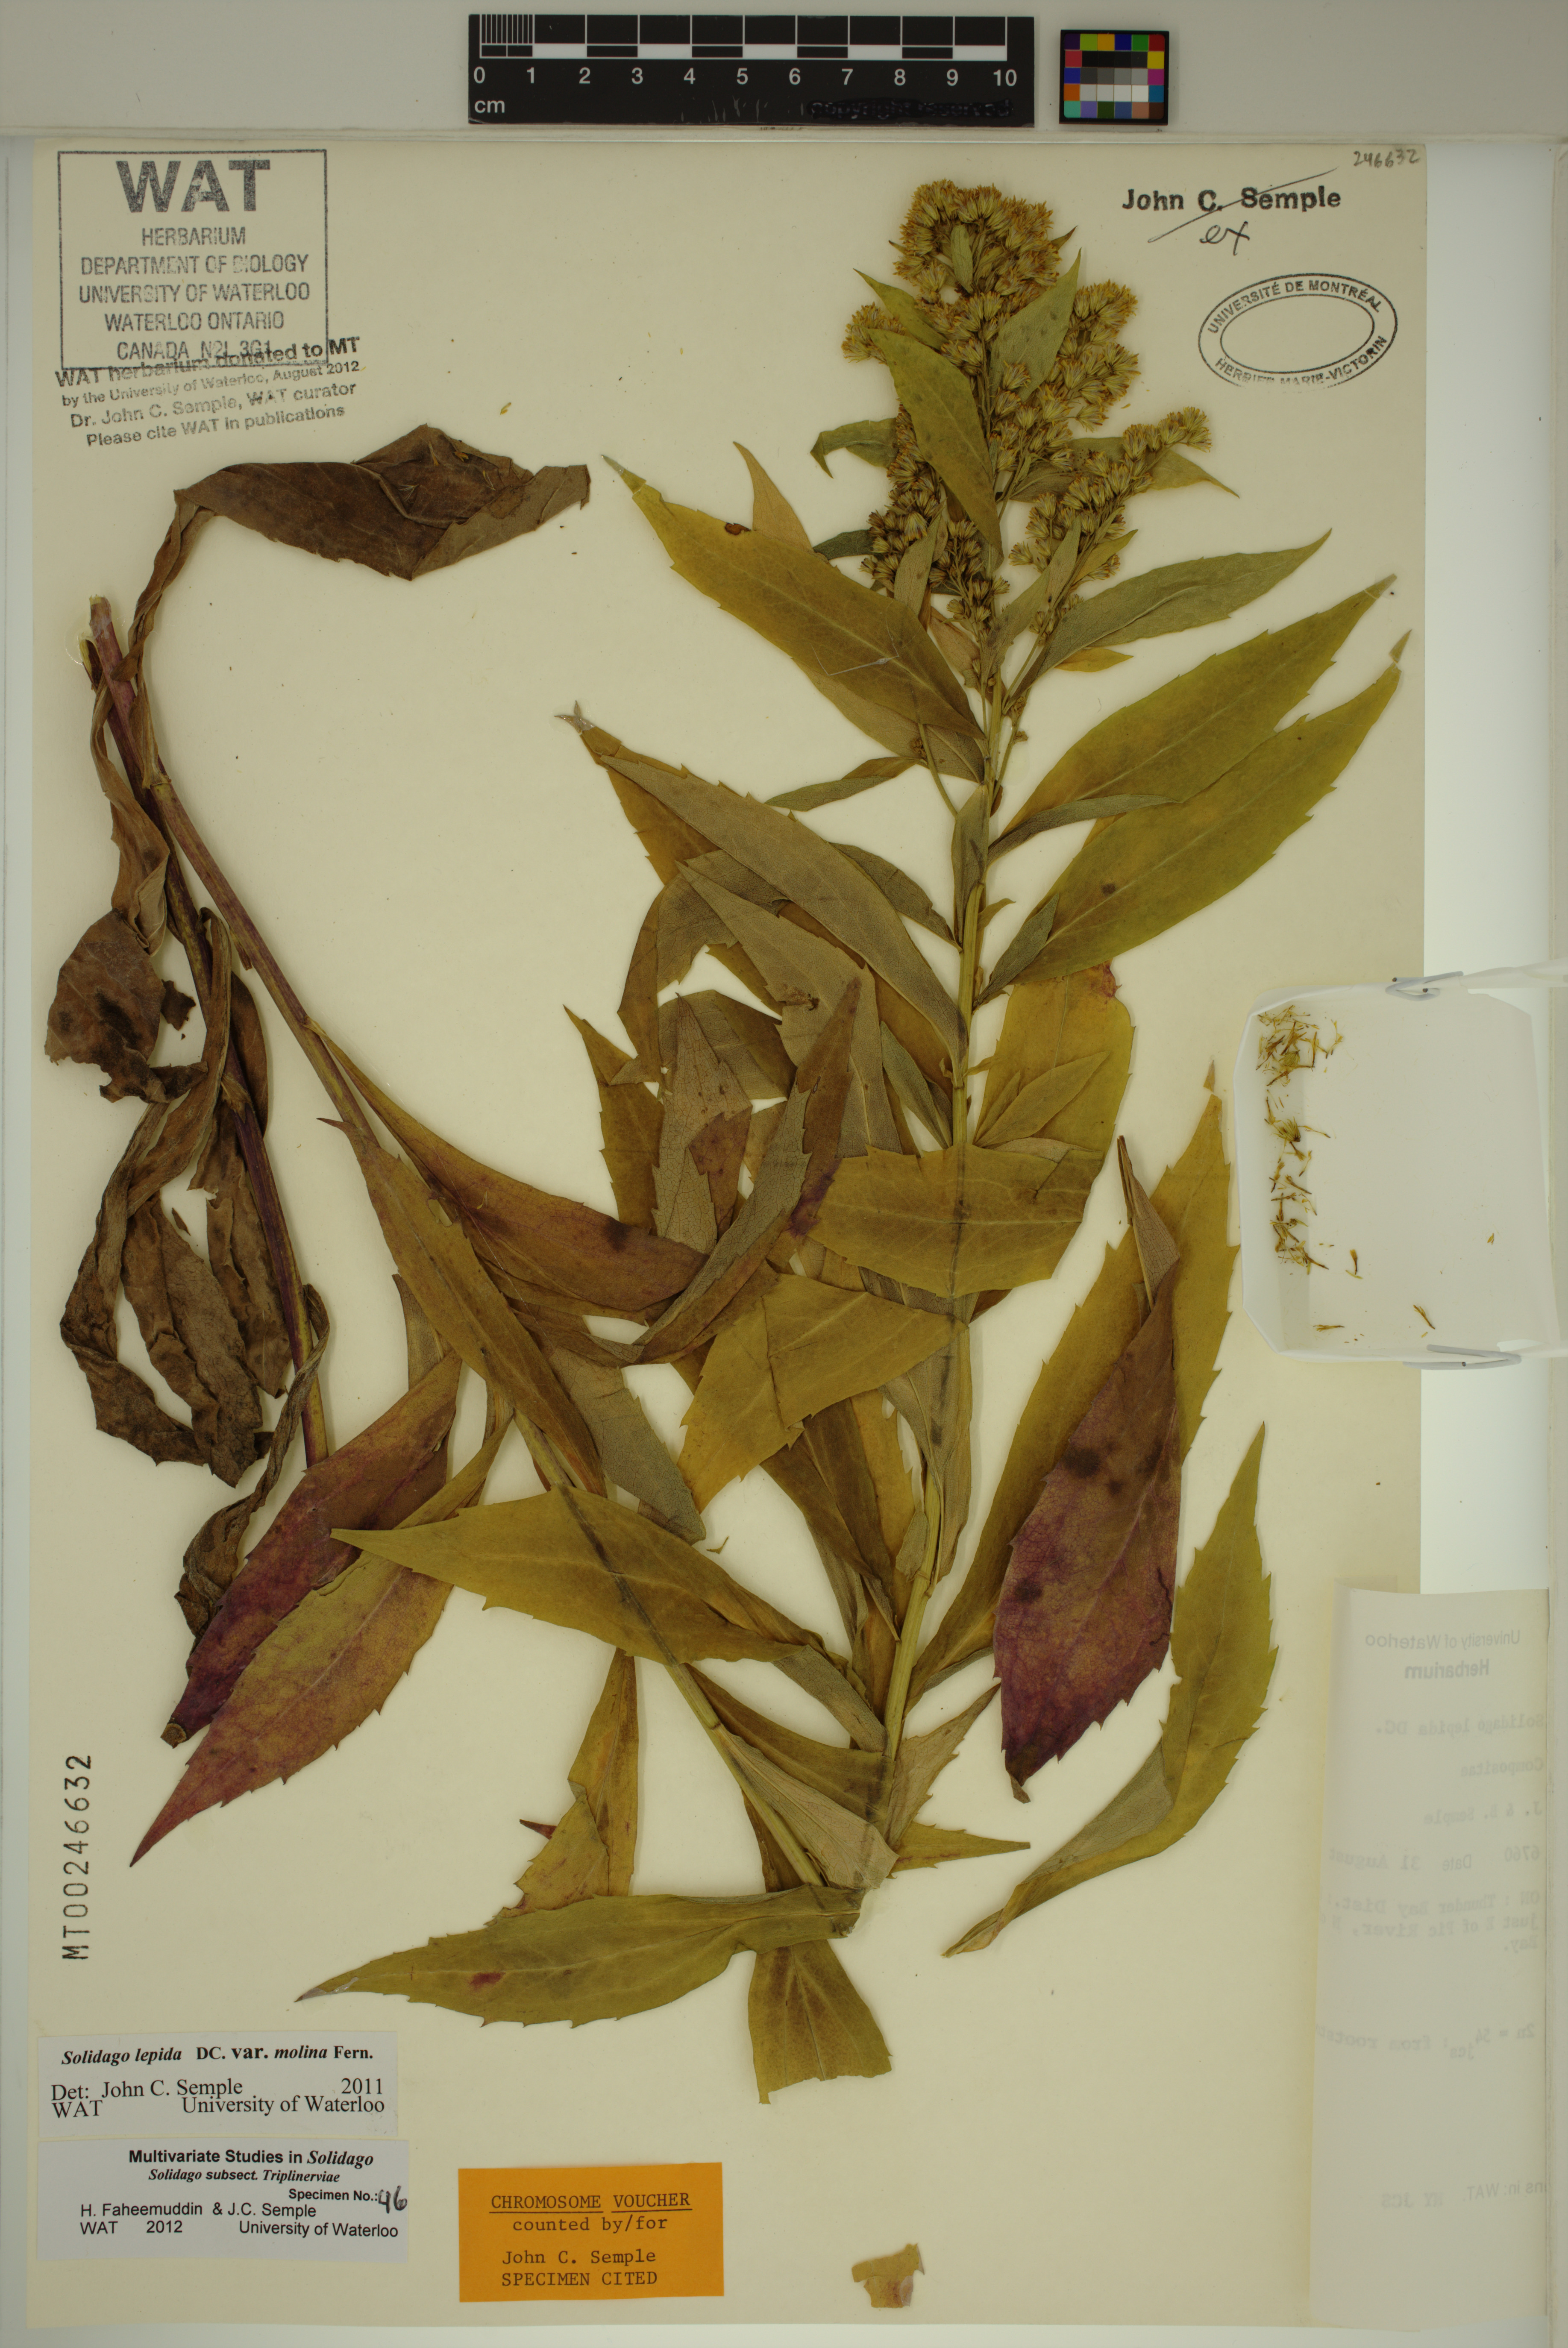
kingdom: Plantae
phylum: Tracheophyta
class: Magnoliopsida
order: Asterales
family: Asteraceae
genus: Solidago
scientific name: Solidago fallax
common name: Big-toothed canada goldenrod
